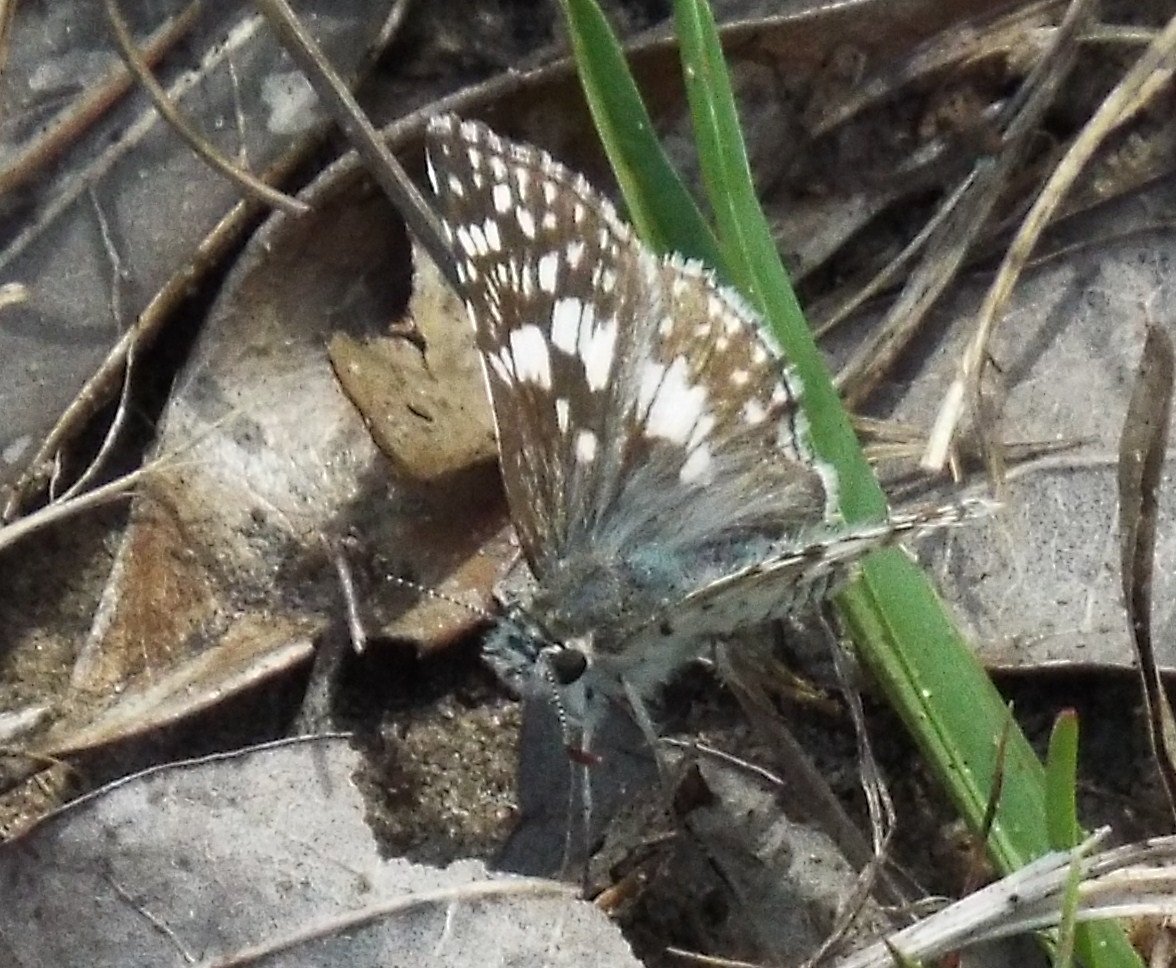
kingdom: Animalia
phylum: Arthropoda
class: Insecta
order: Lepidoptera
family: Hesperiidae
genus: Pyrgus
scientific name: Pyrgus communis
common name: White Checkered-Skipper
